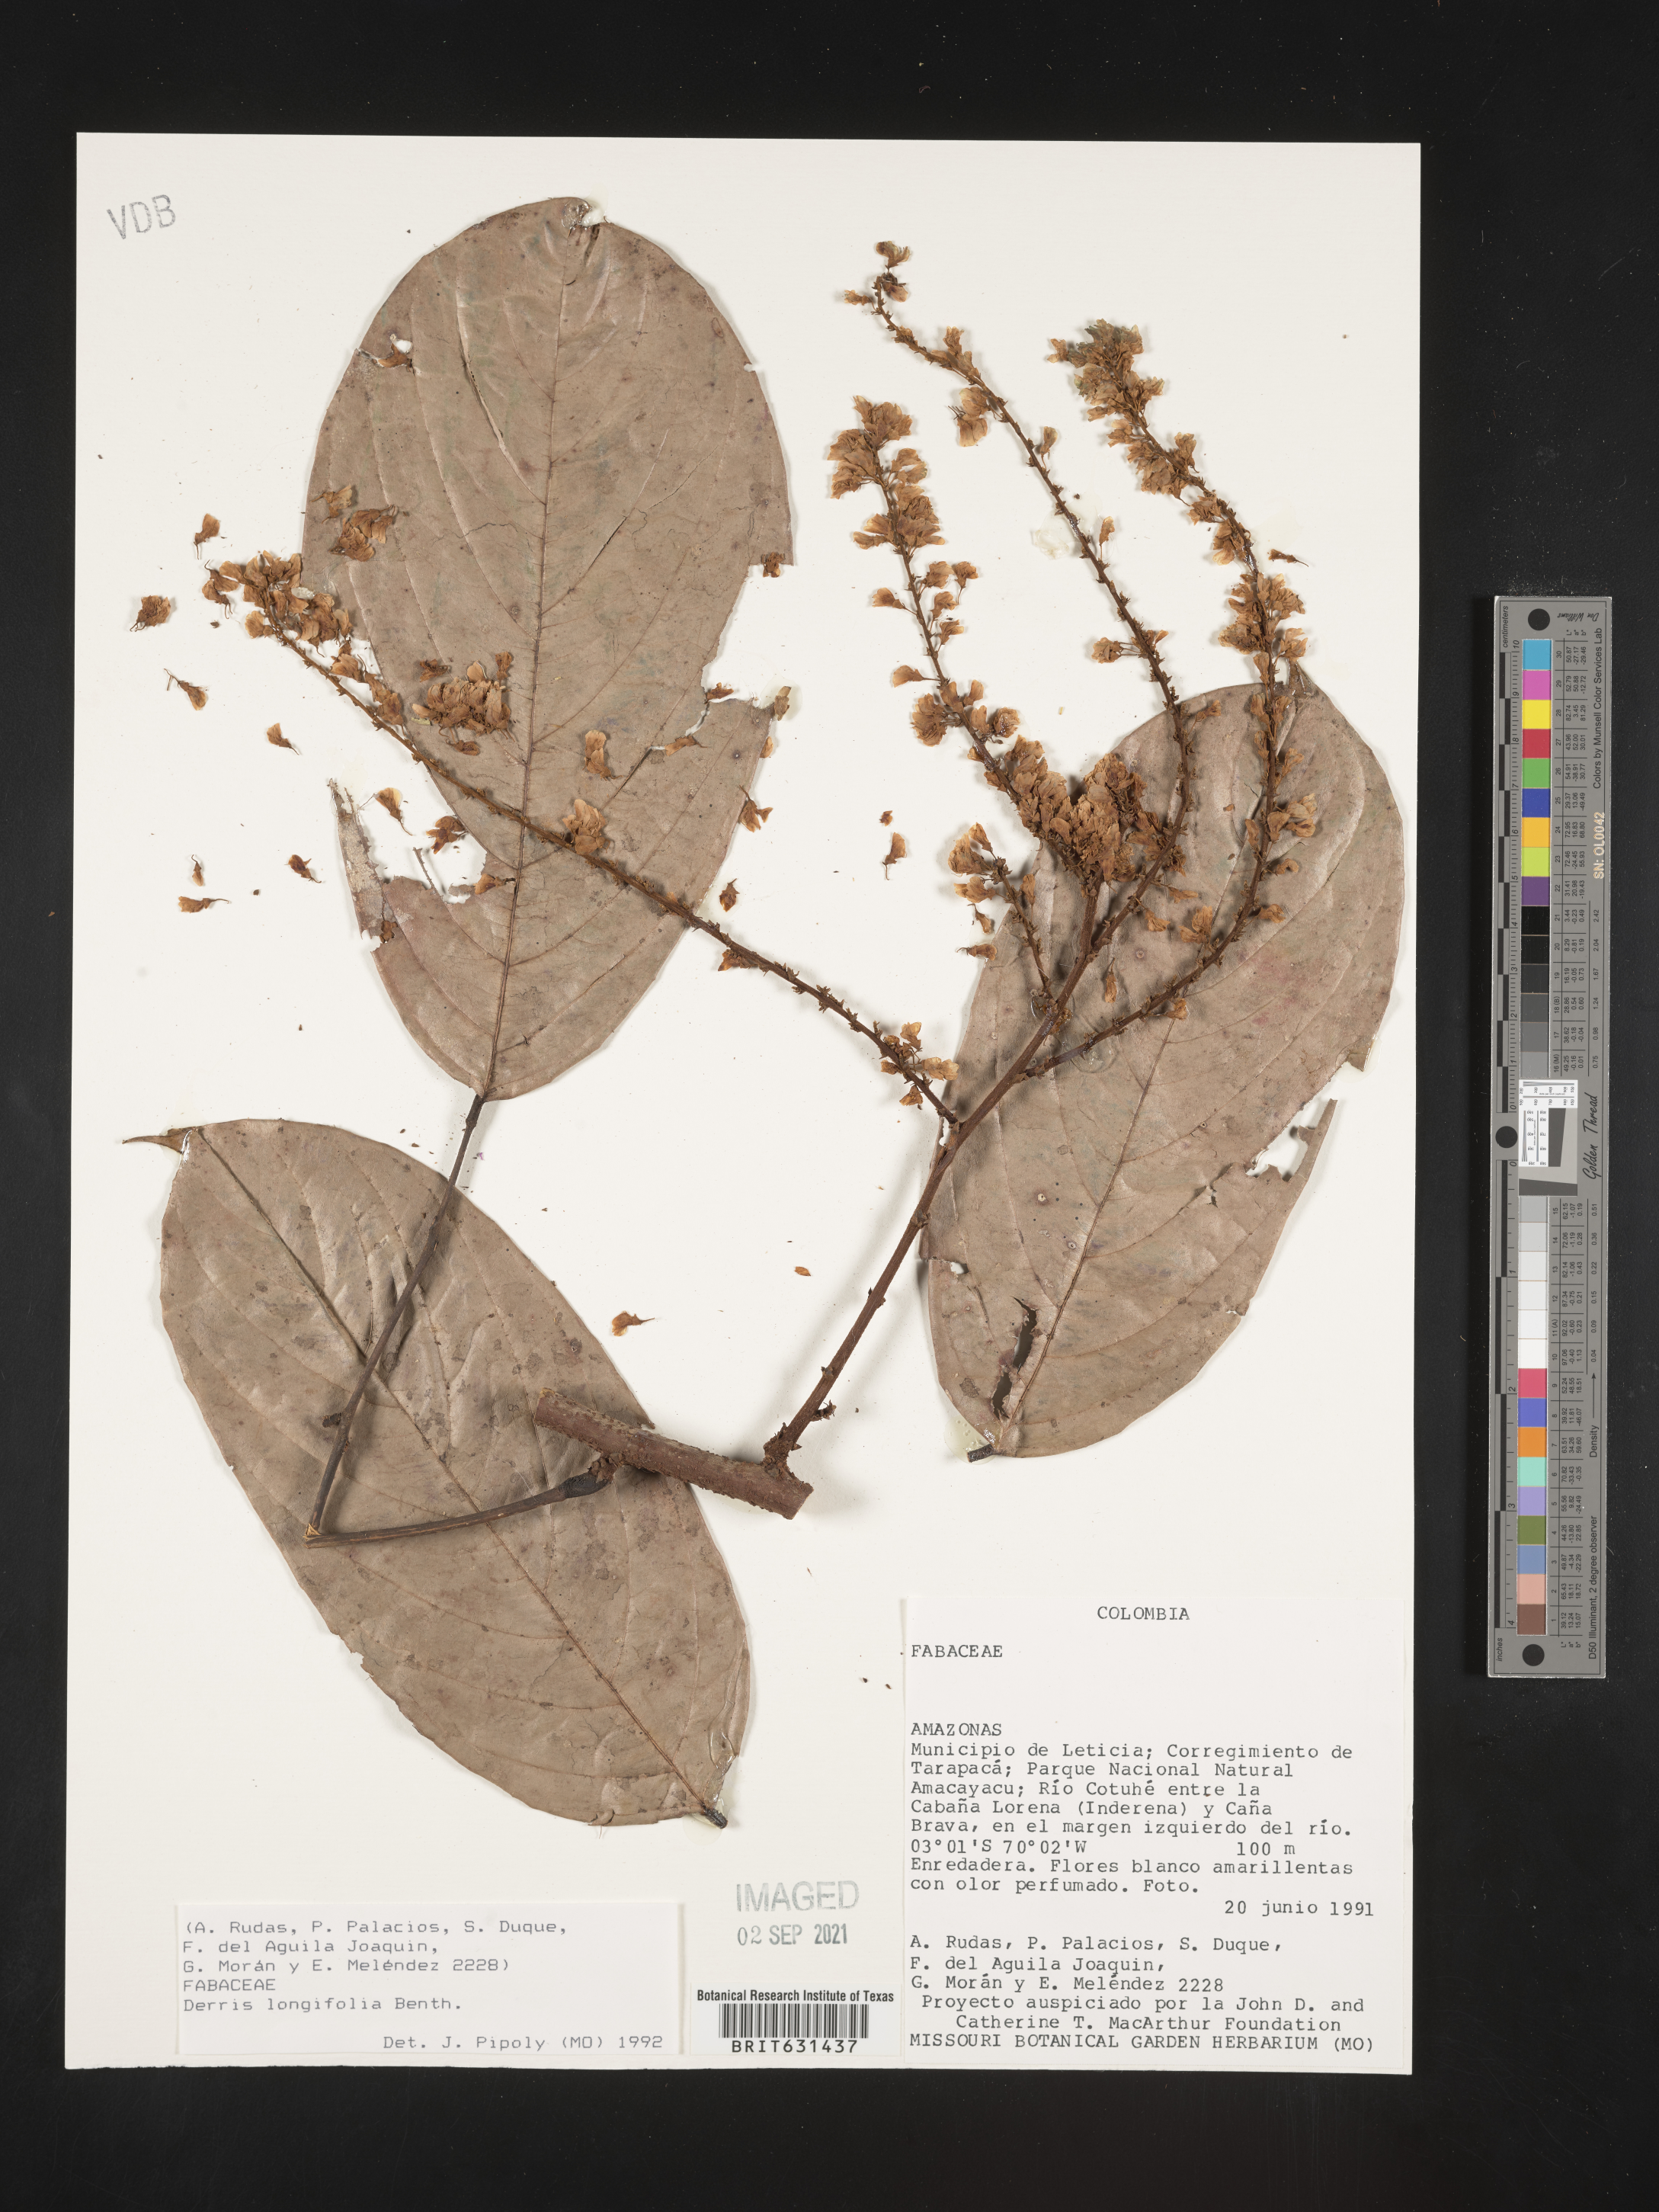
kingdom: Plantae
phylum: Tracheophyta
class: Magnoliopsida
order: Fabales
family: Fabaceae
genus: Deguelia
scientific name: Deguelia negrensis
